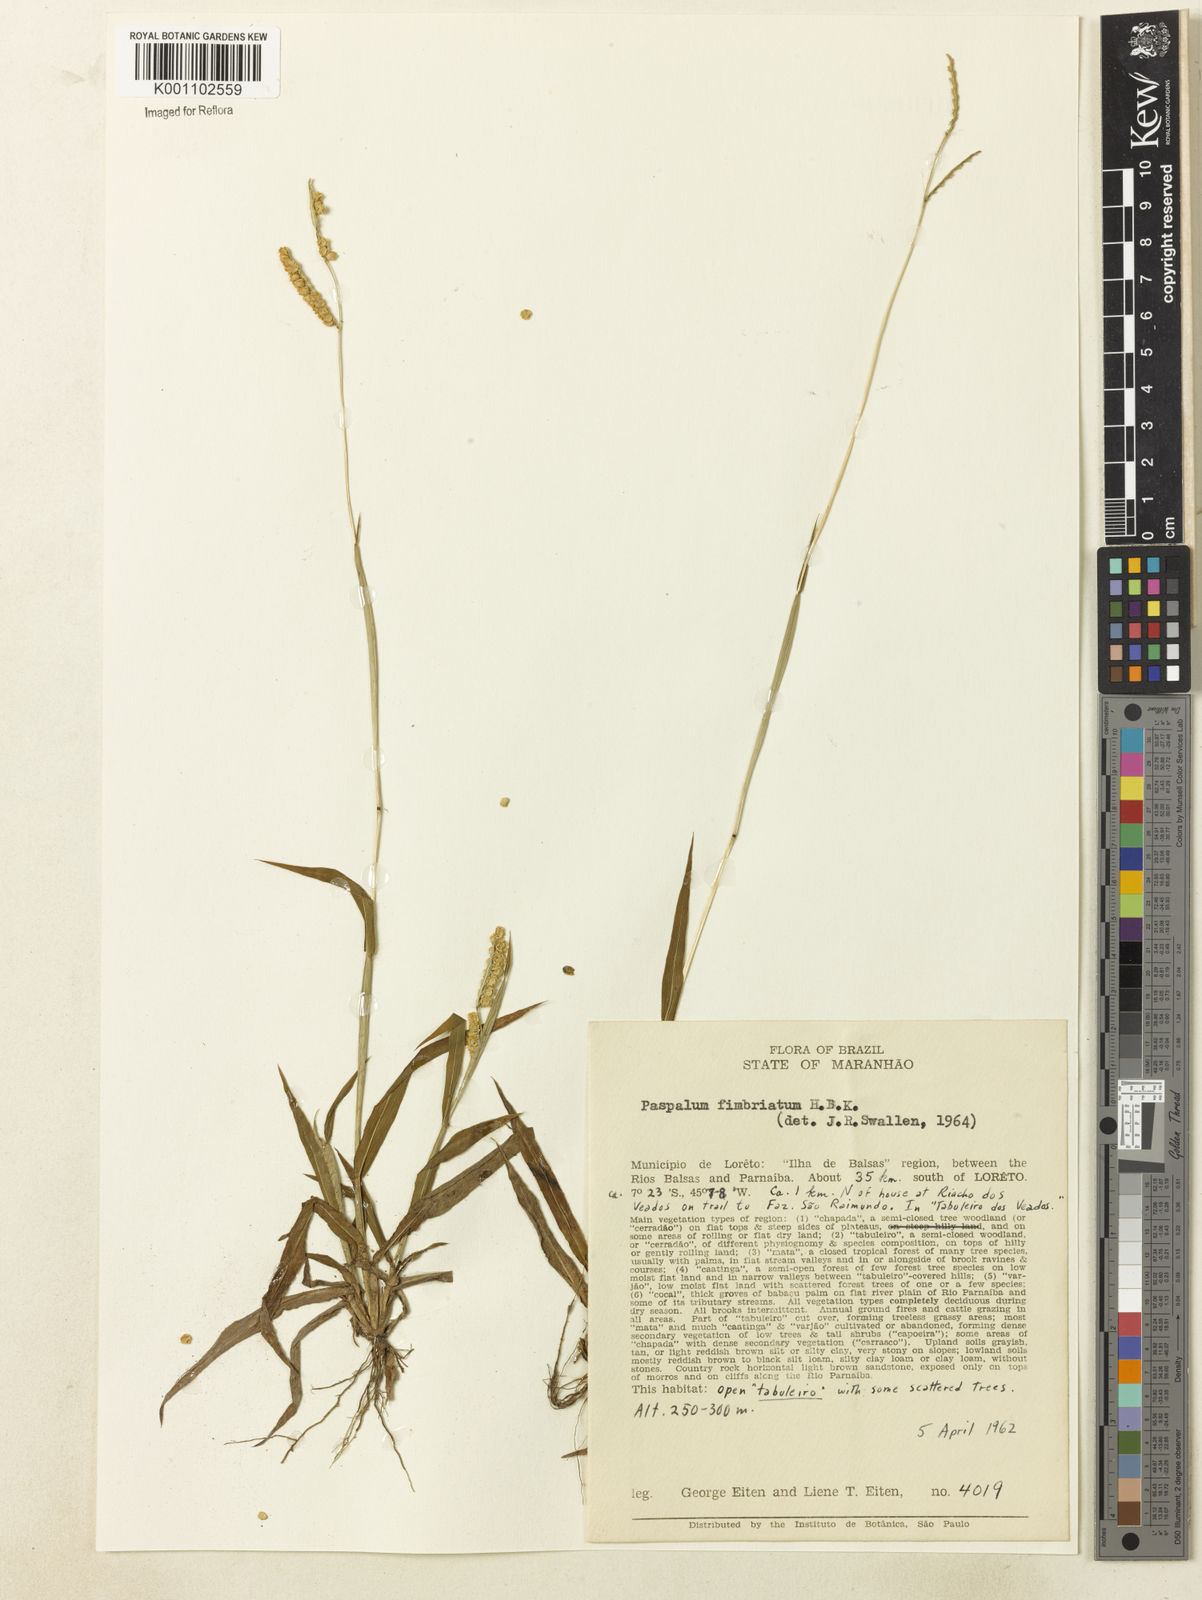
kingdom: Plantae
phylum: Tracheophyta
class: Liliopsida
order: Poales
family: Poaceae
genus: Paspalum
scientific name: Paspalum fimbriatum
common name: Panama crowngrass
